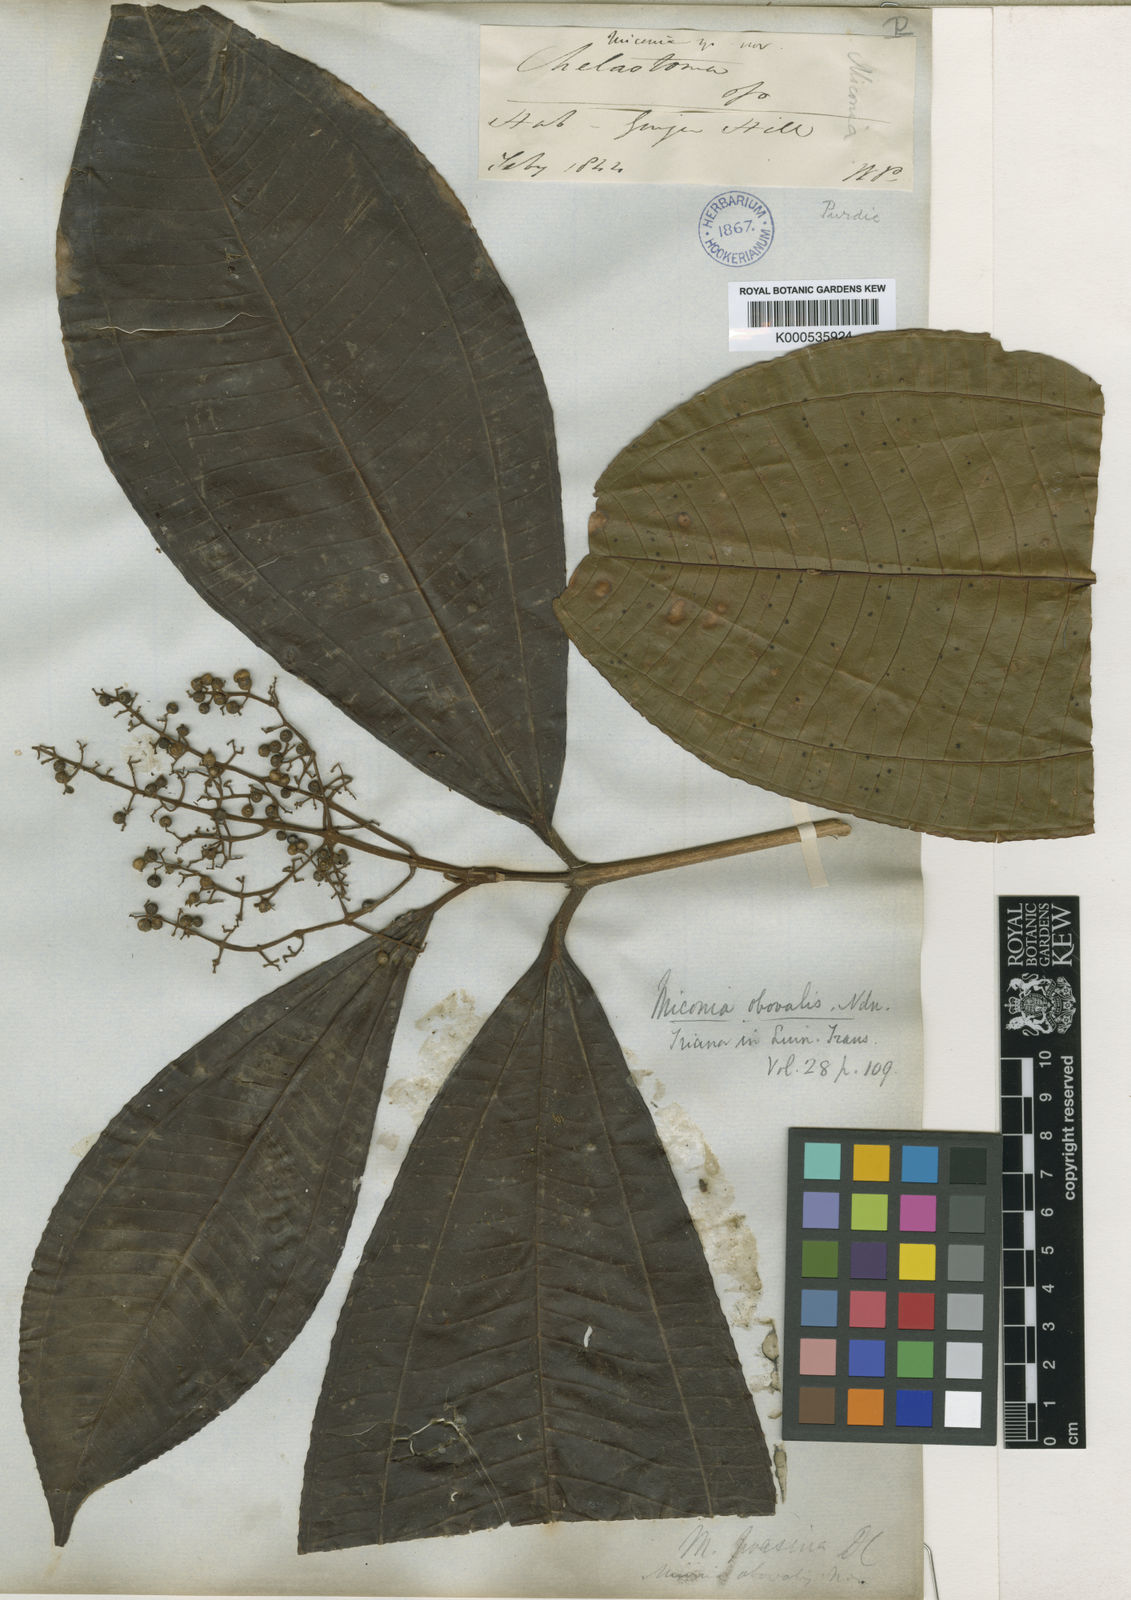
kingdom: Plantae
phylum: Tracheophyta
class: Magnoliopsida
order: Myrtales
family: Melastomataceae
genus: Miconia
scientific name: Miconia splendens
